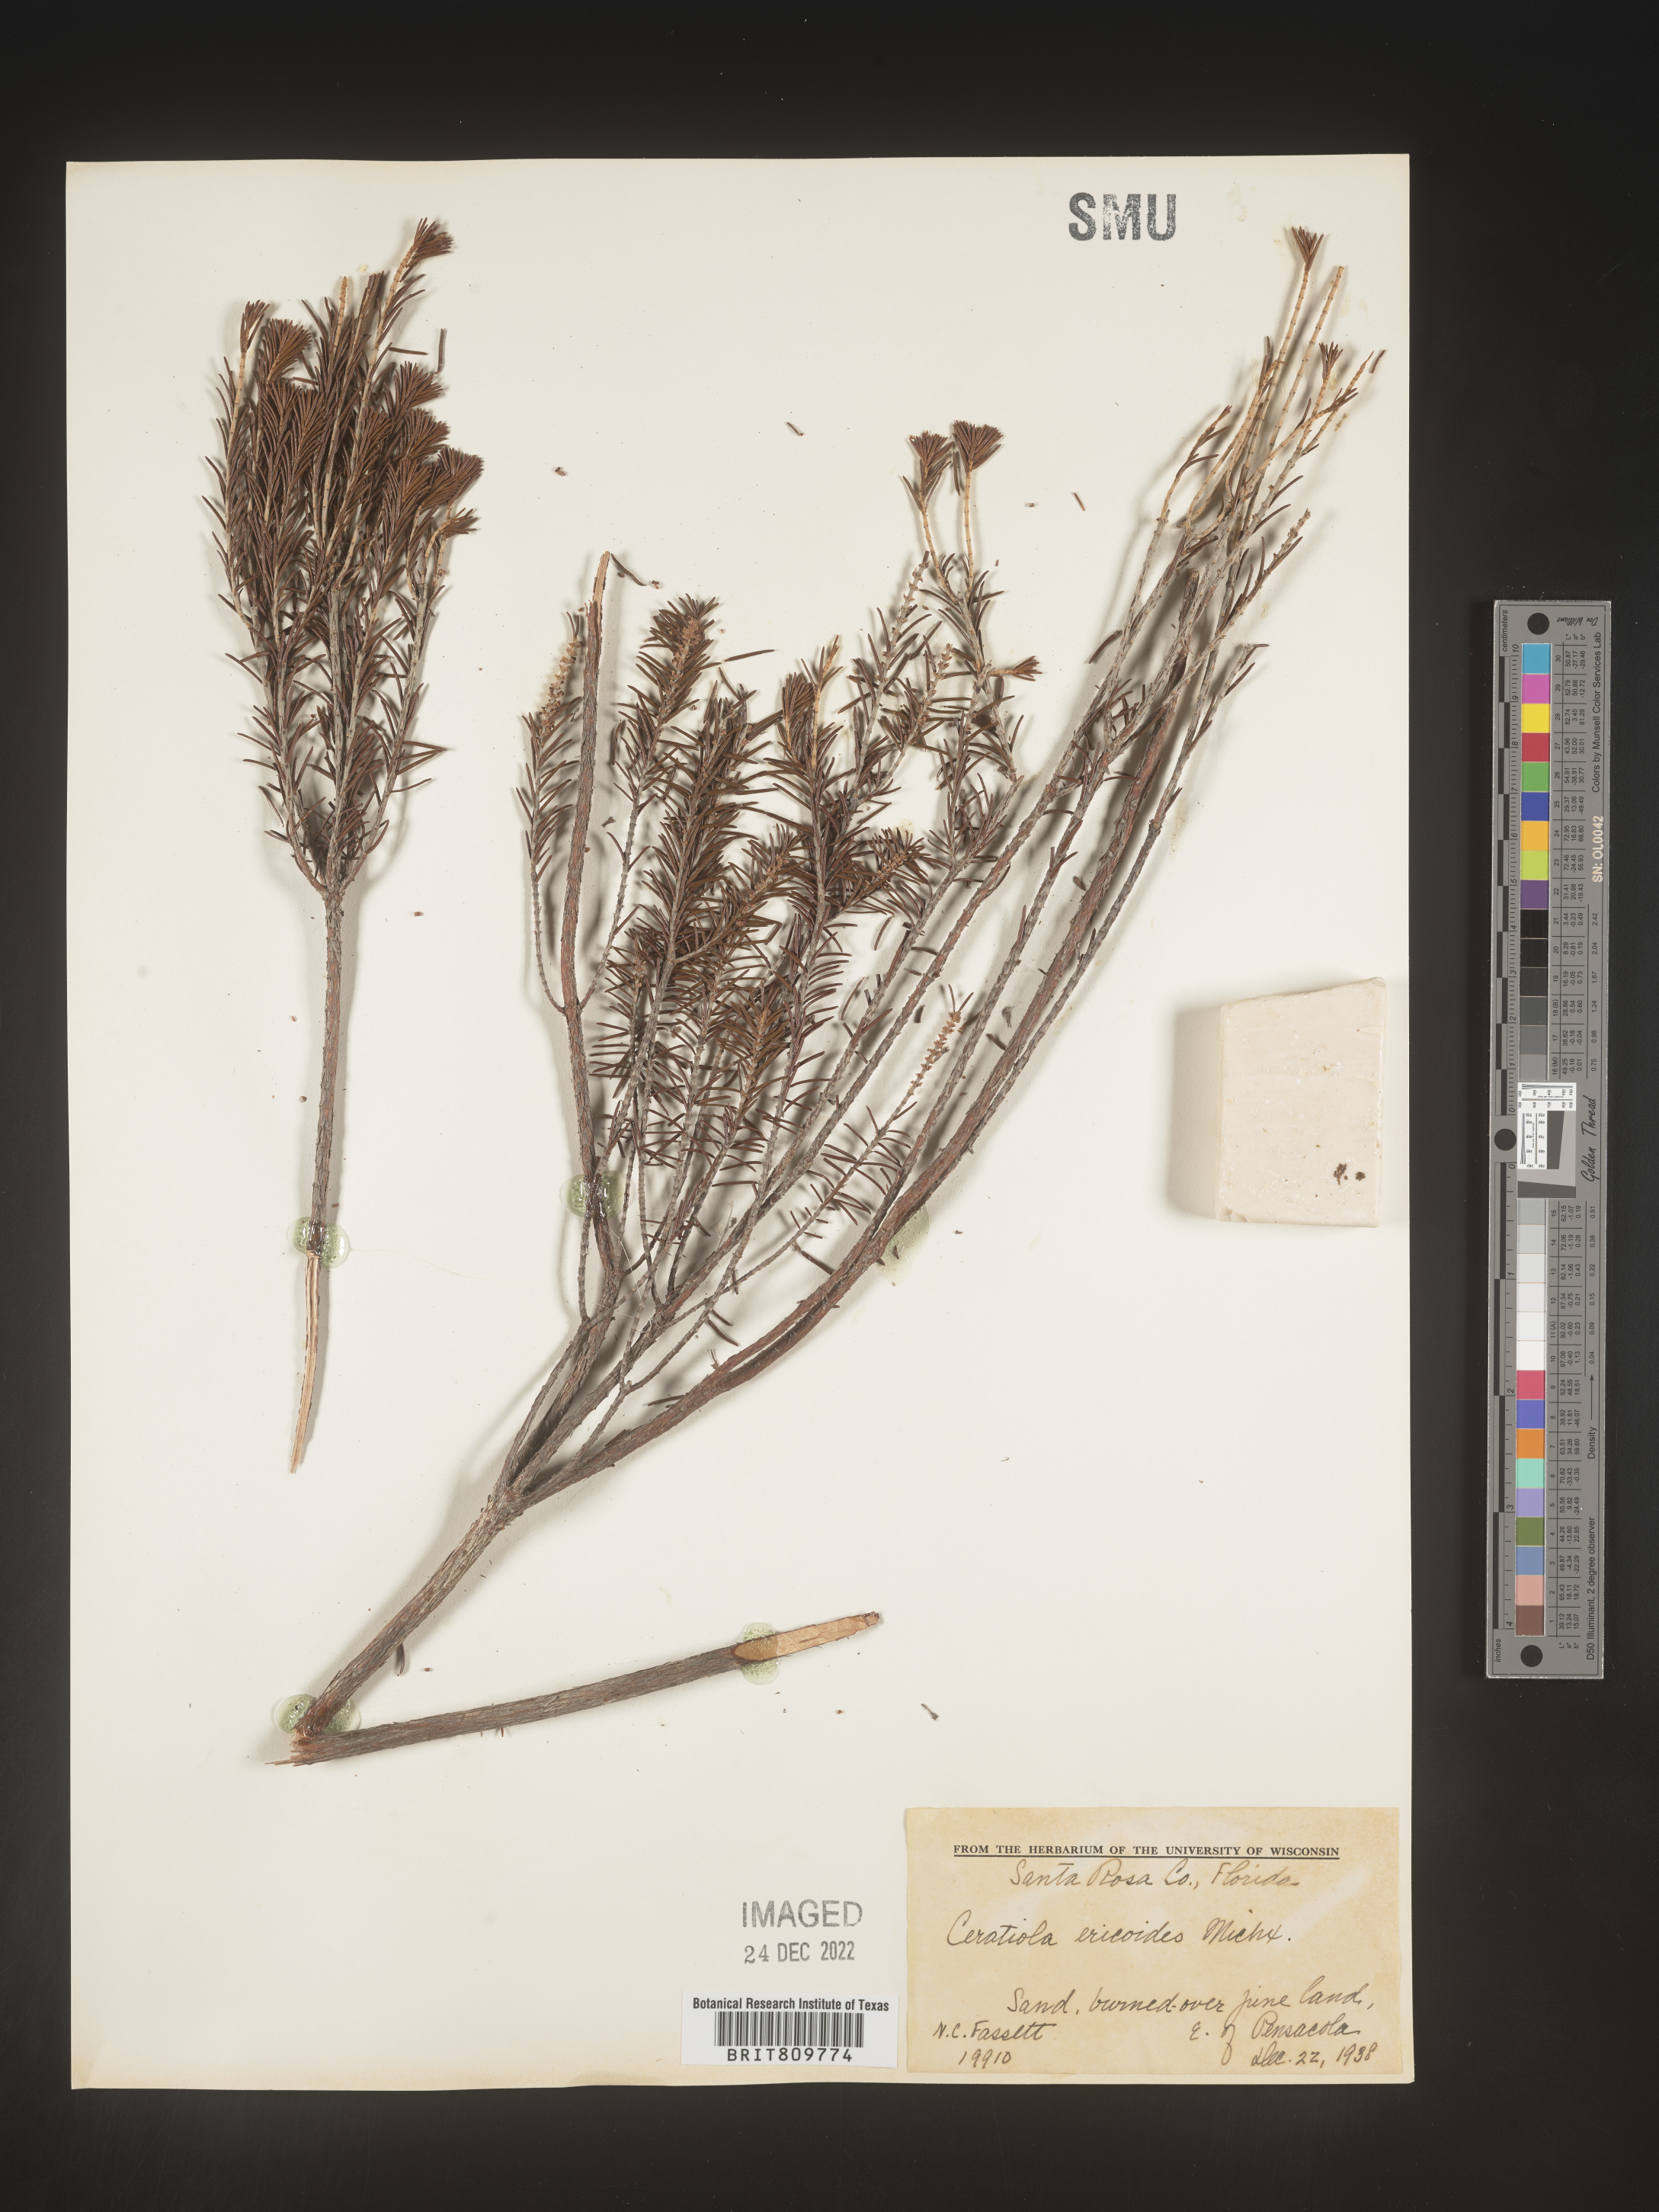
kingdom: Plantae
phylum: Tracheophyta
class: Magnoliopsida
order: Ericales
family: Ericaceae
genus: Ceratiola
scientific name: Ceratiola ericoides
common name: Sandhill-rosemary
